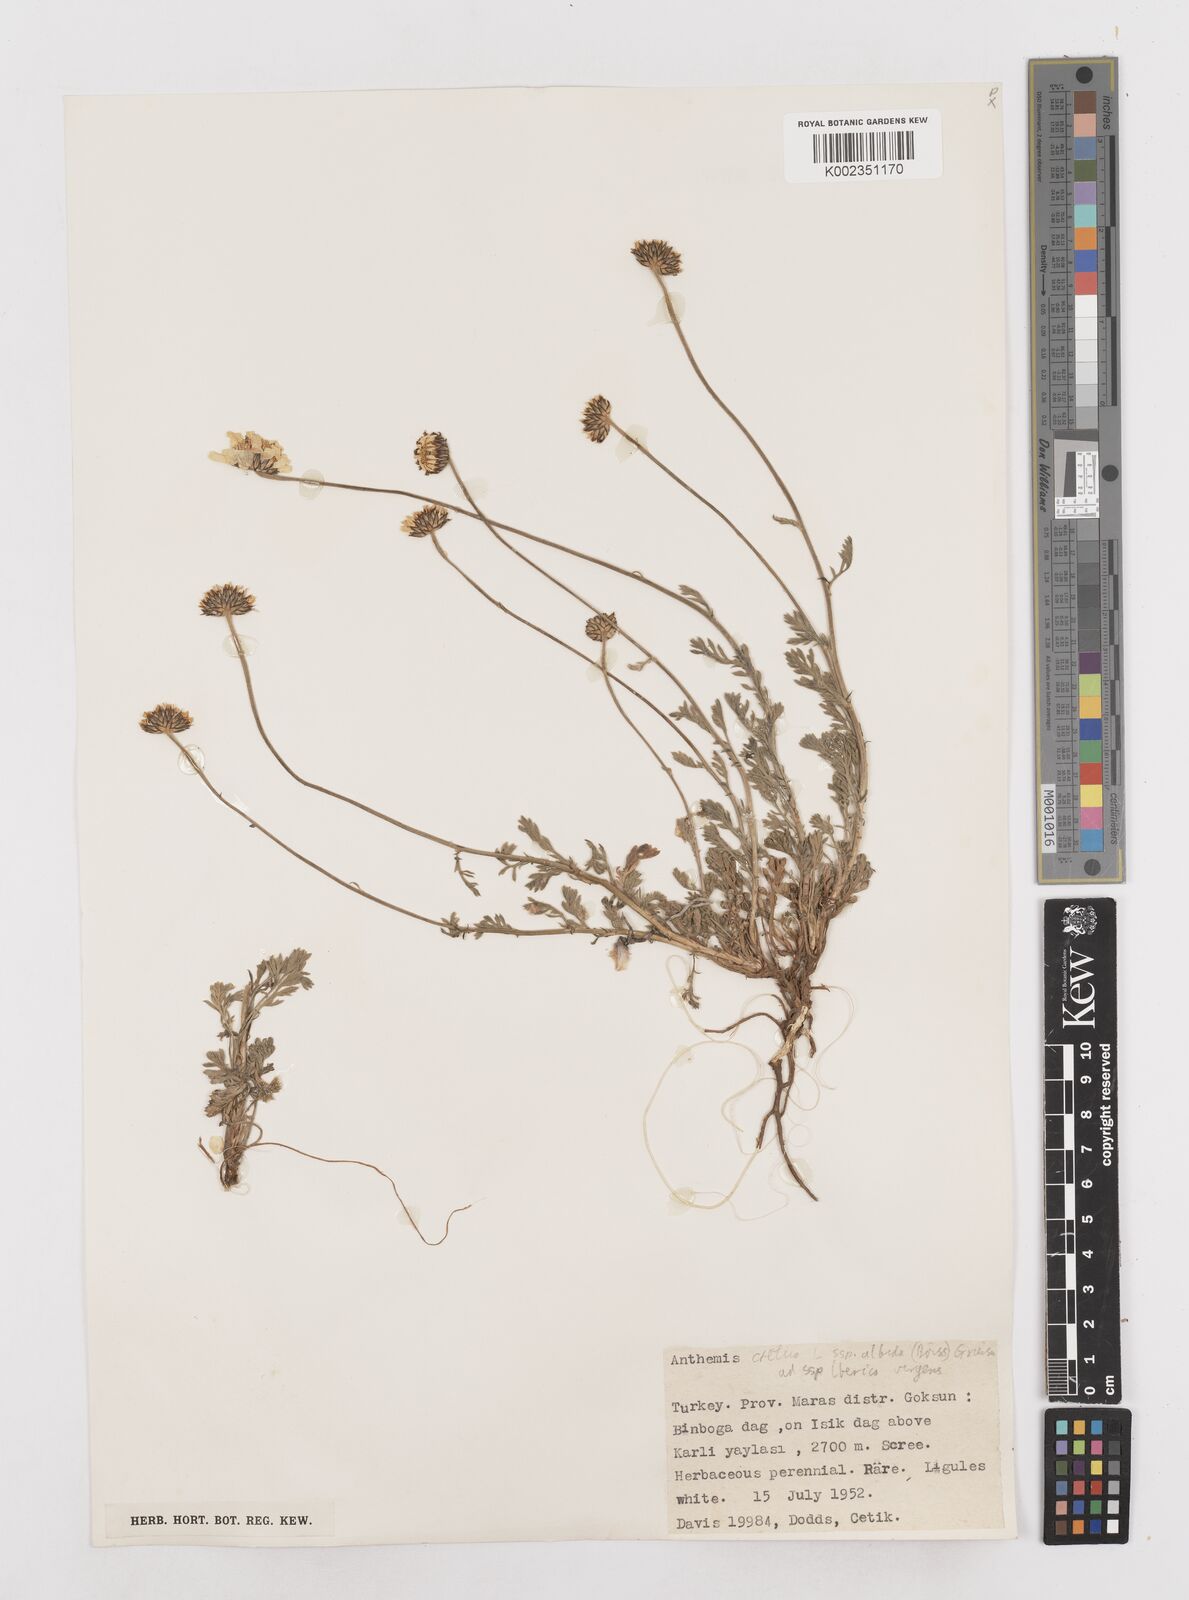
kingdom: Plantae
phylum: Tracheophyta
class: Magnoliopsida
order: Asterales
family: Asteraceae
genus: Anthemis
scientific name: Anthemis cretica
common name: Mountain dog-daisy
